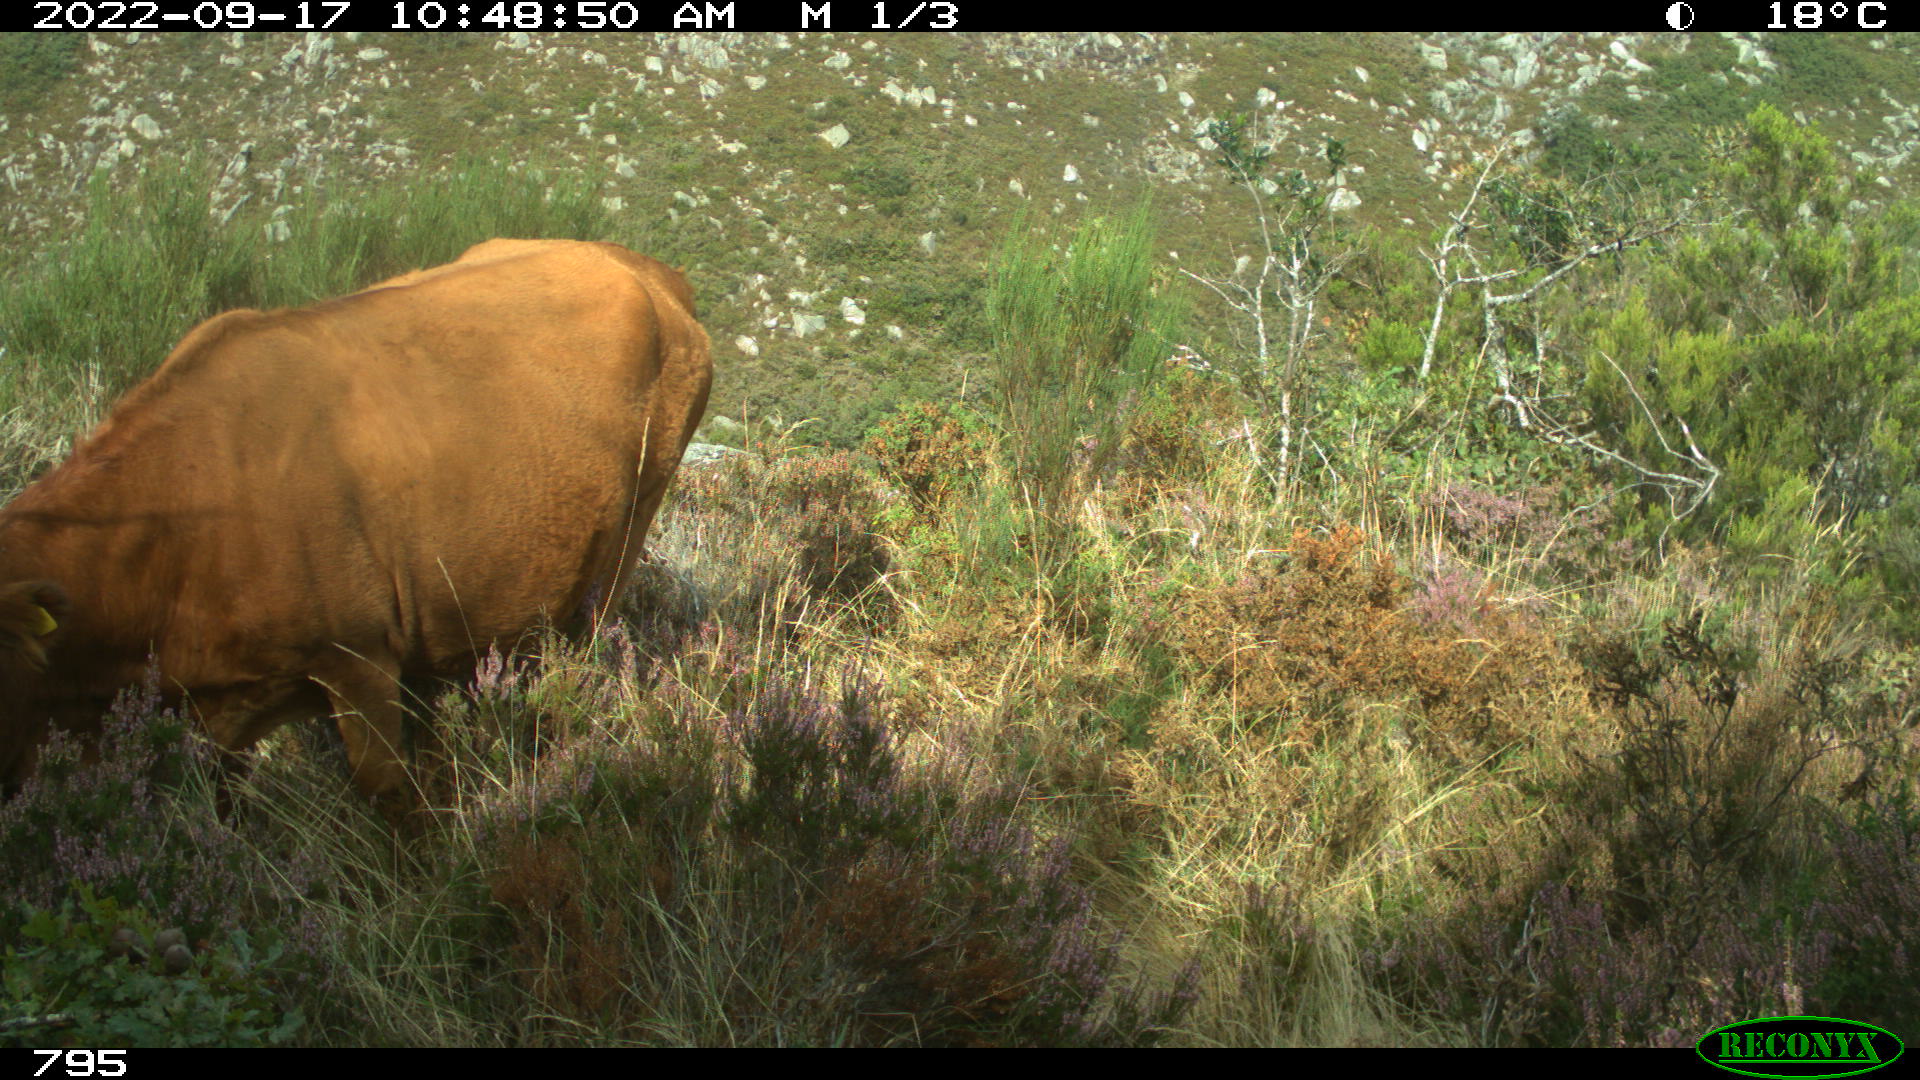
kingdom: Animalia
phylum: Chordata
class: Mammalia
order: Artiodactyla
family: Bovidae
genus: Bos
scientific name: Bos taurus
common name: Domesticated cattle
